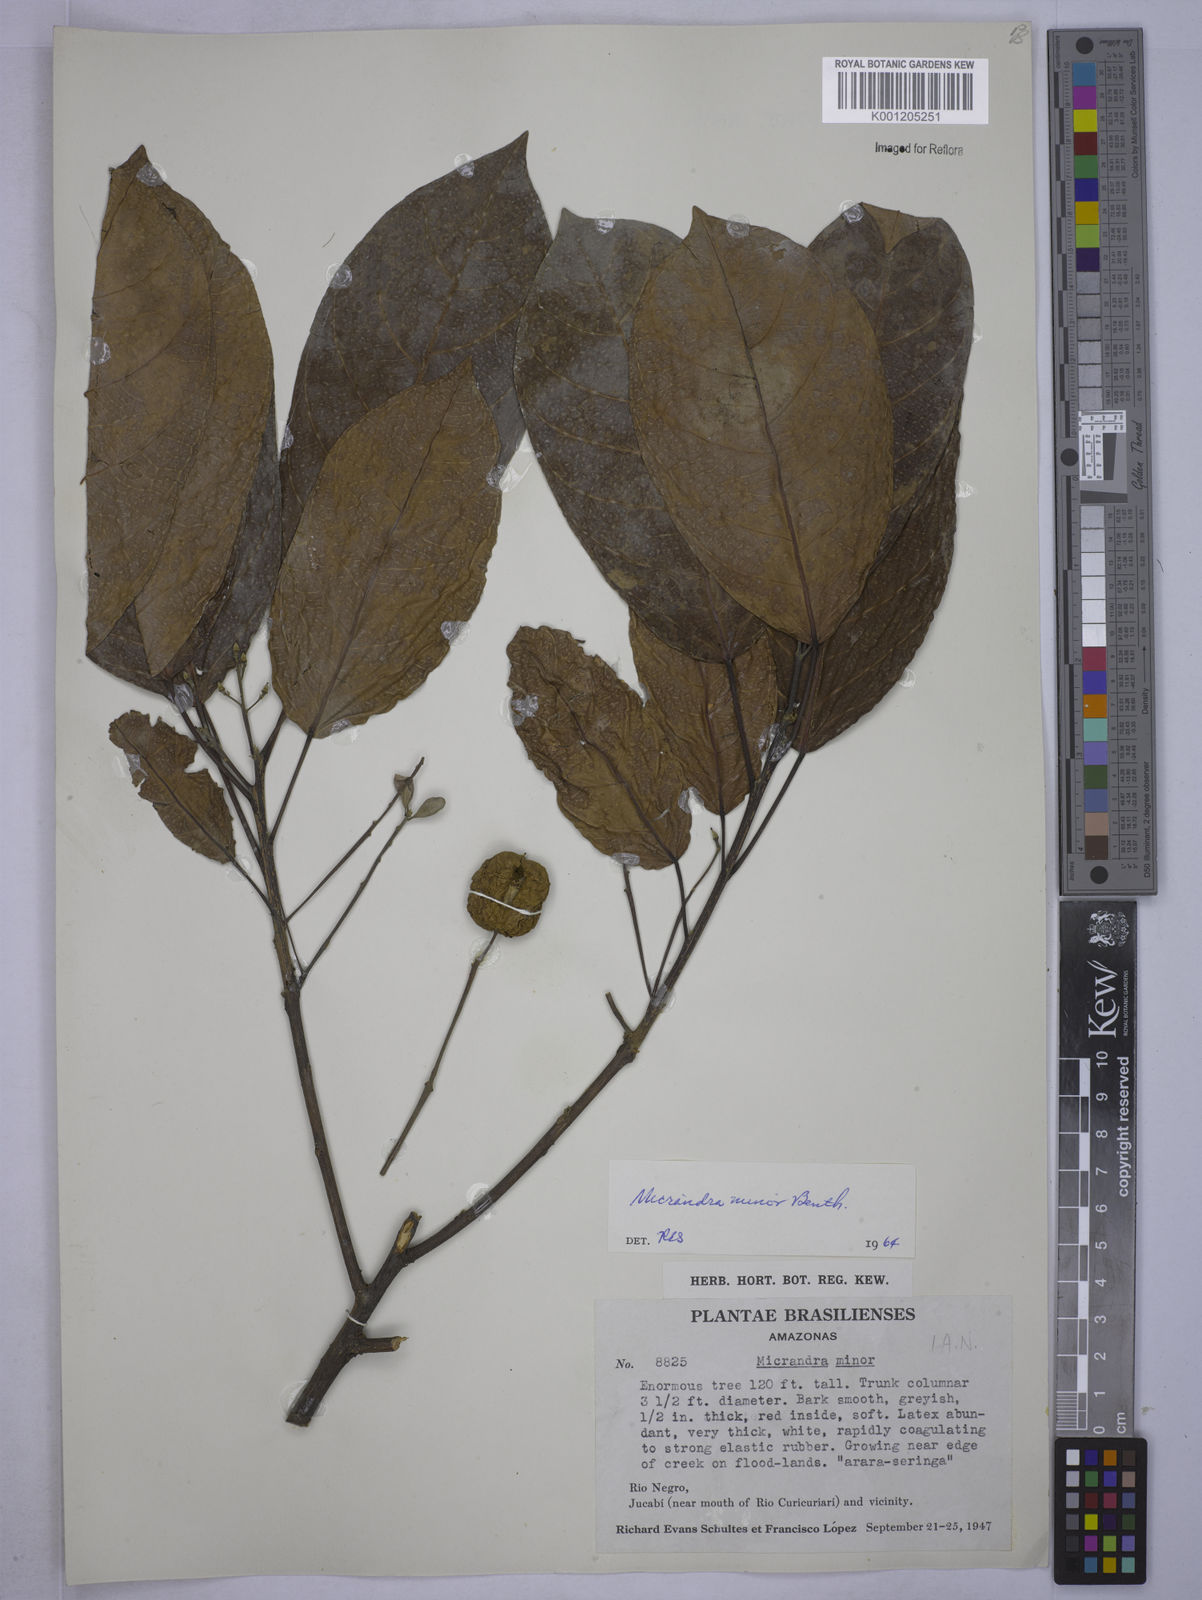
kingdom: Plantae
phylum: Tracheophyta
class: Magnoliopsida
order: Malpighiales
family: Euphorbiaceae
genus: Micrandra
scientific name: Micrandra minor
